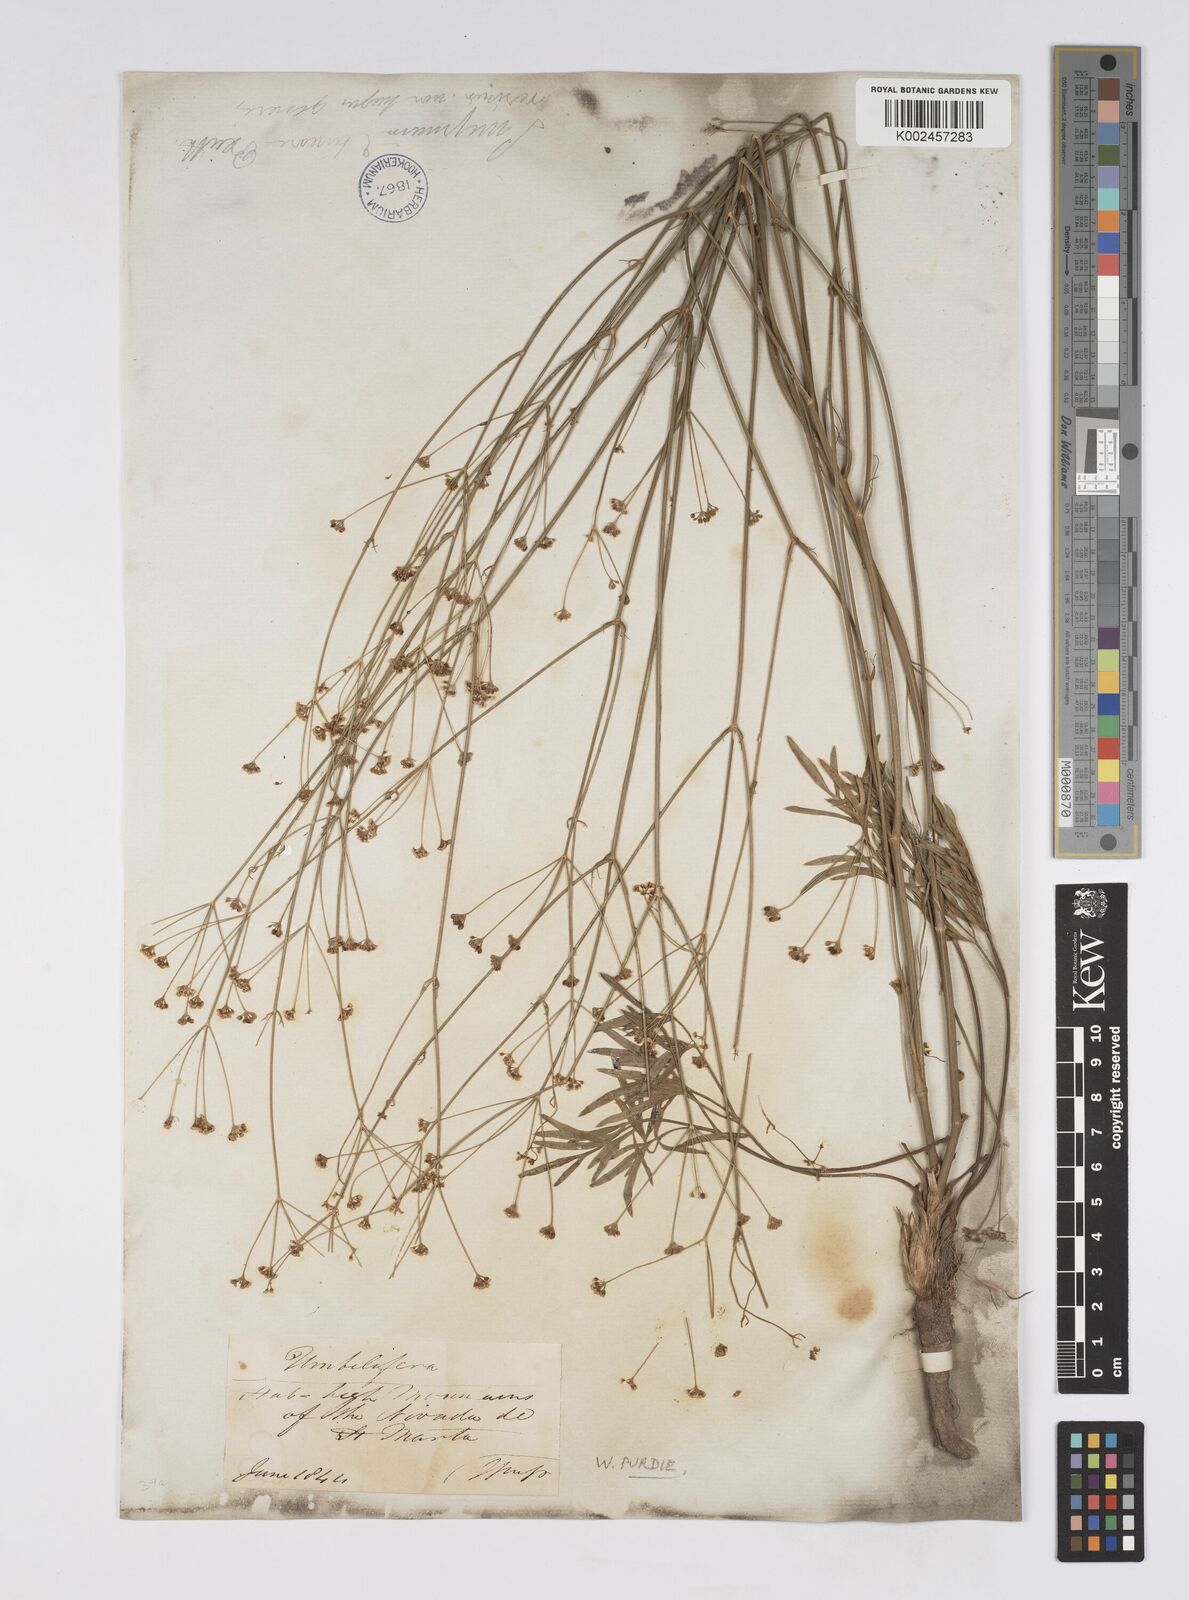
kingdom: Plantae
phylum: Tracheophyta
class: Magnoliopsida
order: Apiales
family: Apiaceae
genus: Donnellsmithia
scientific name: Donnellsmithia
